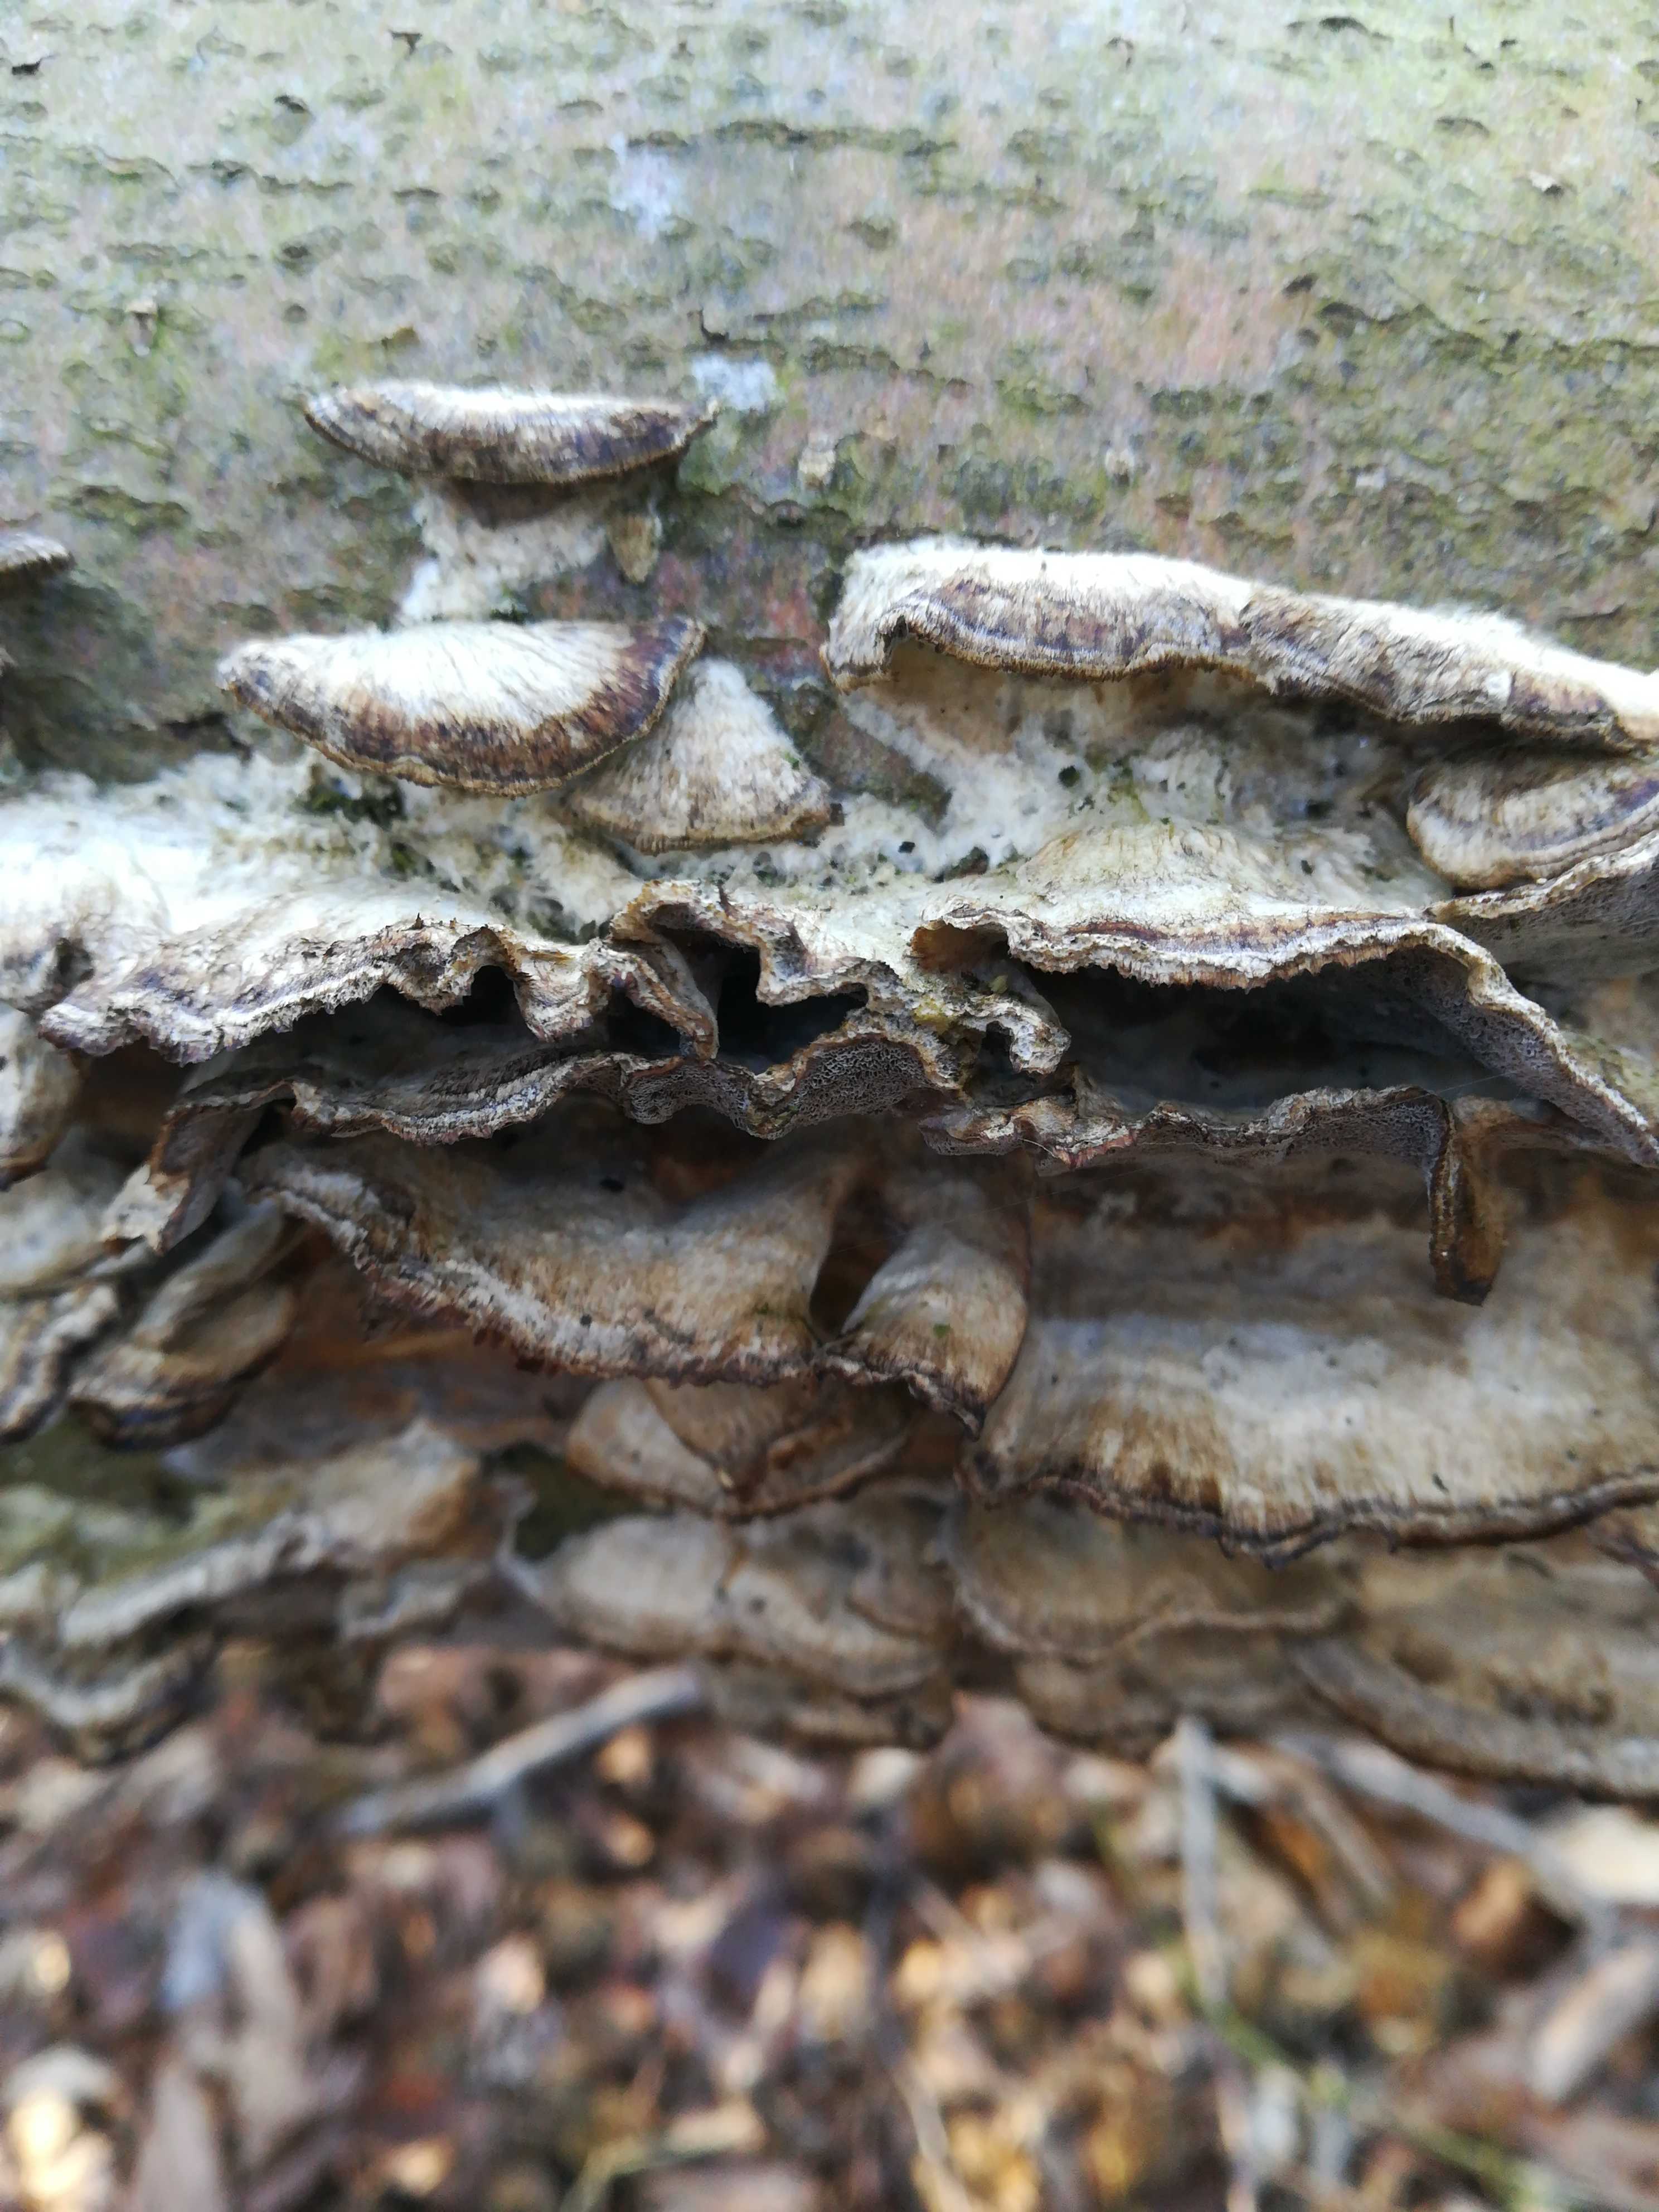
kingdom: Fungi
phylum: Basidiomycota
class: Agaricomycetes
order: Polyporales
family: Phanerochaetaceae
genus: Bjerkandera
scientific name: Bjerkandera adusta
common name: sveden sodporesvamp
